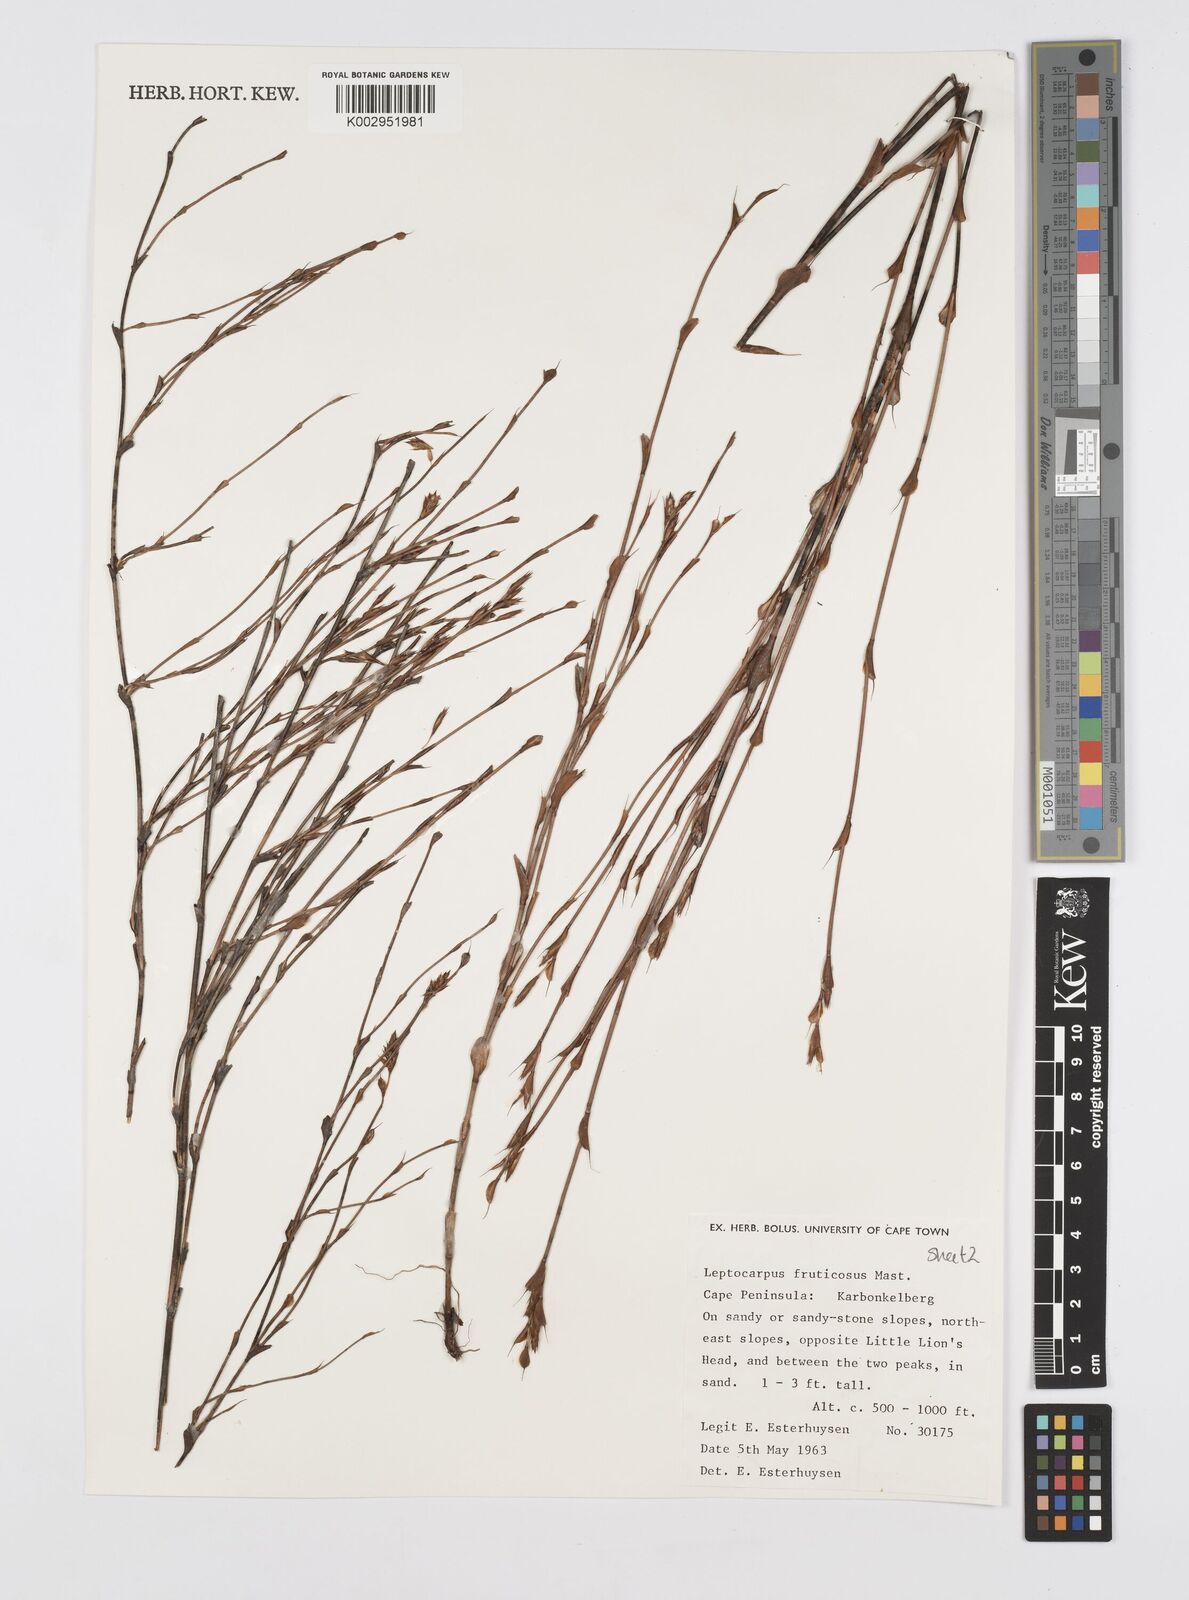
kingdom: Plantae
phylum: Tracheophyta
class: Liliopsida
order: Poales
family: Restionaceae
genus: Rhodocoma
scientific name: Rhodocoma fruticosa
